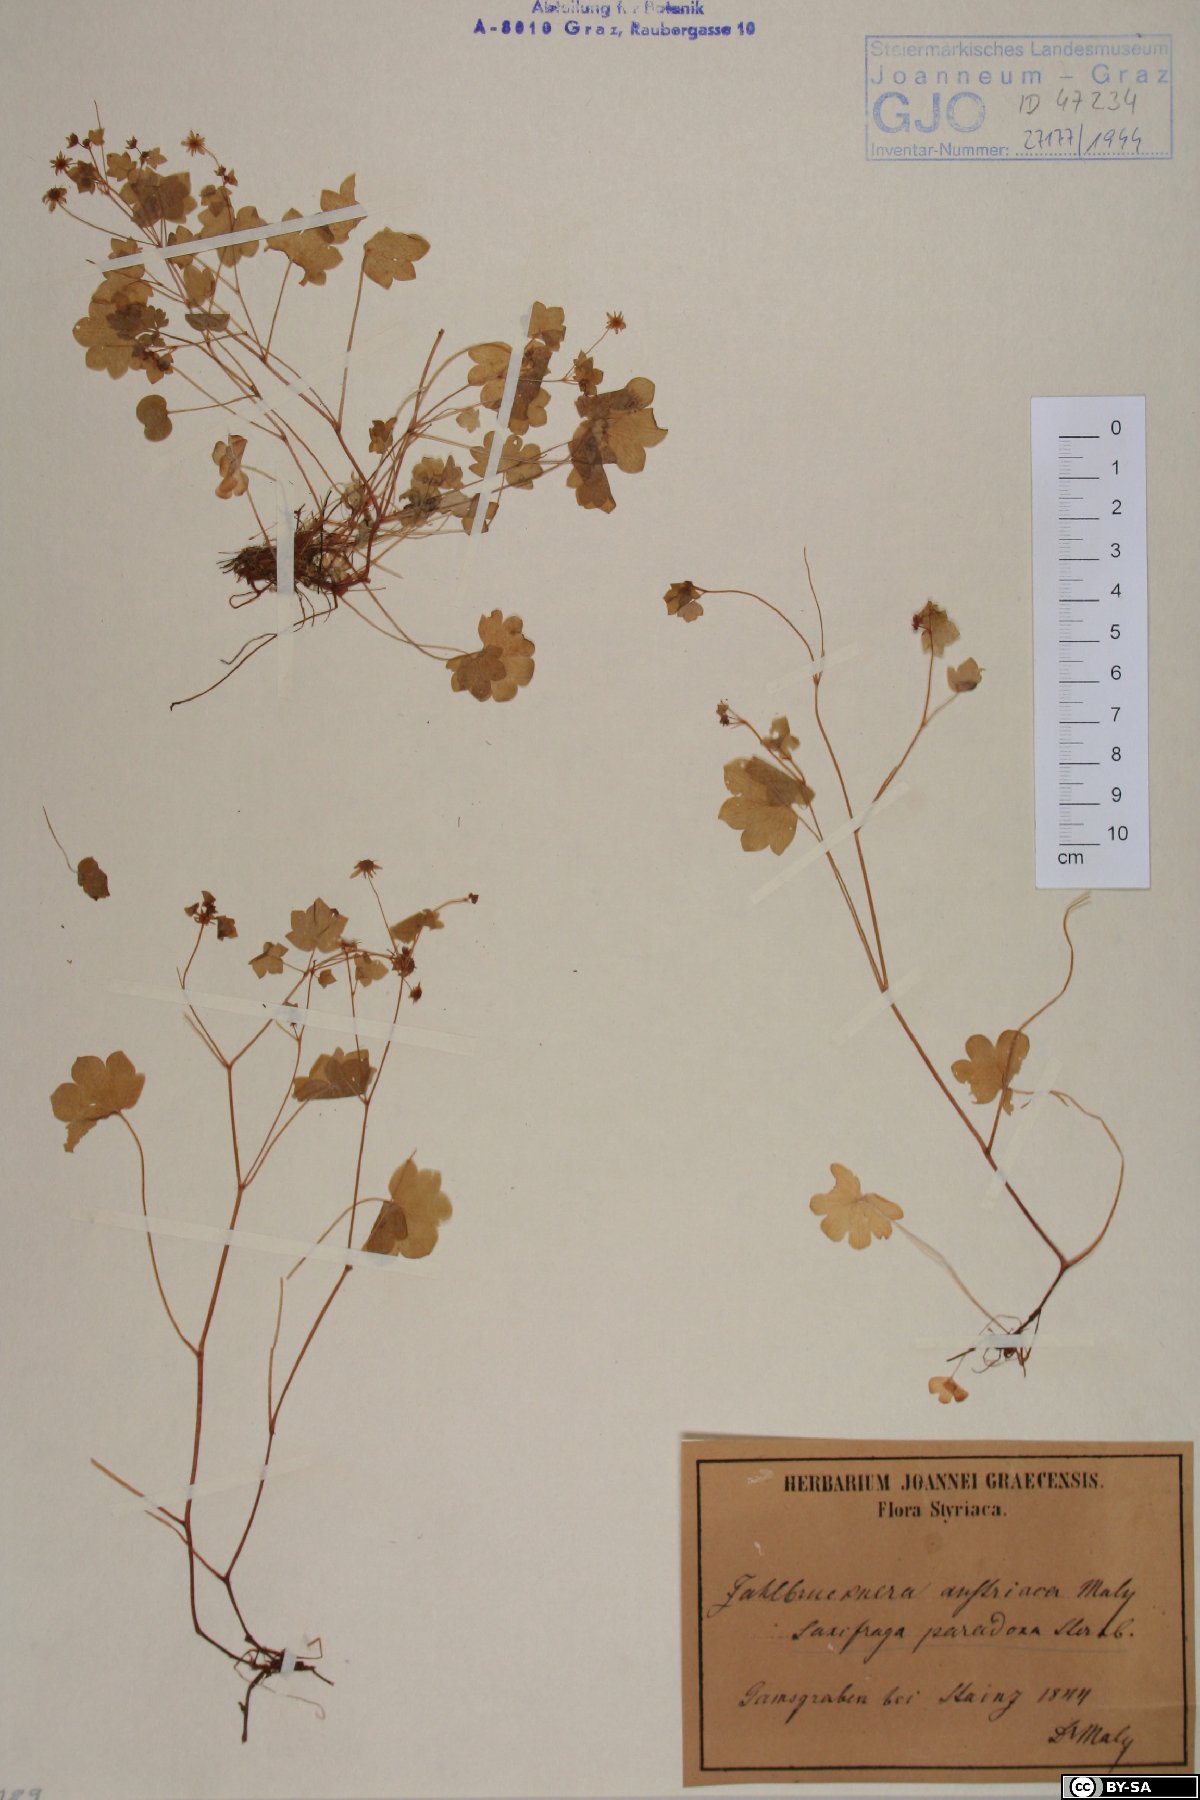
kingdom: Plantae
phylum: Tracheophyta
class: Magnoliopsida
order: Saxifragales
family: Saxifragaceae
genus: Saxifraga
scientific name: Saxifraga paradoxa
